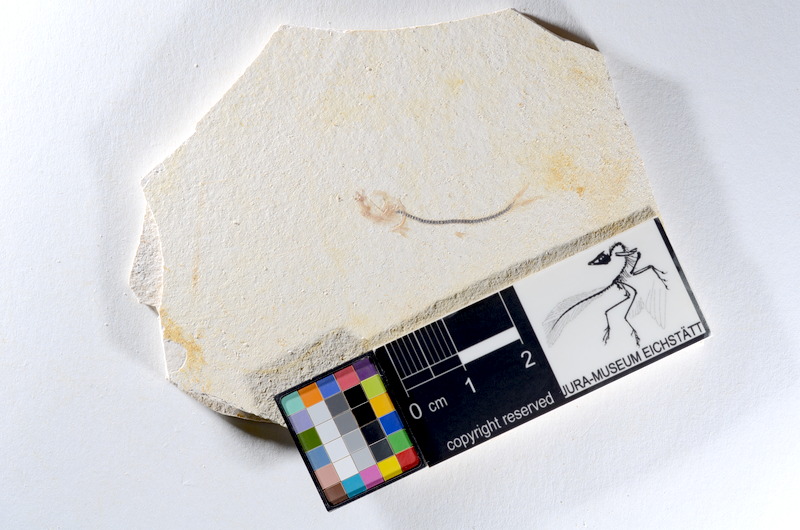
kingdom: Animalia
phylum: Chordata
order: Salmoniformes
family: Orthogonikleithridae
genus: Orthogonikleithrus
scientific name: Orthogonikleithrus hoelli
